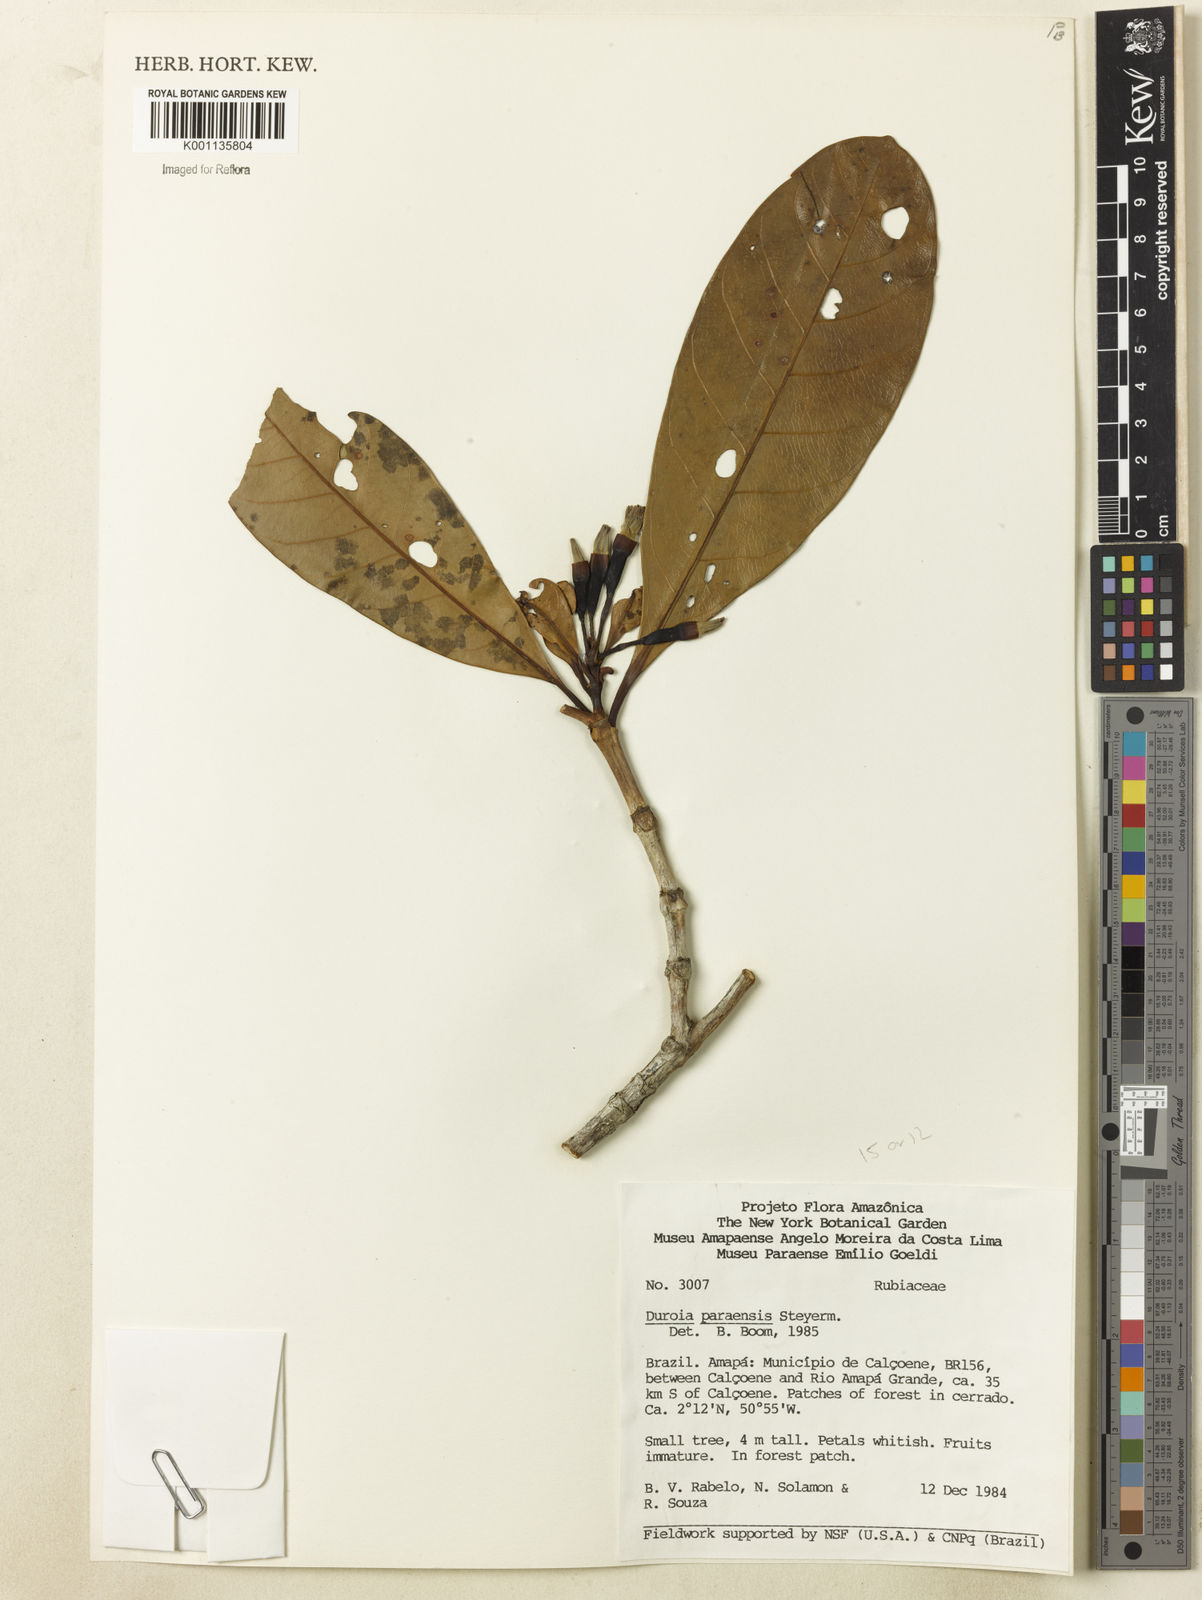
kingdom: Plantae
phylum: Tracheophyta
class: Magnoliopsida
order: Gentianales
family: Rubiaceae
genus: Duroia
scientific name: Duroia paraensis
